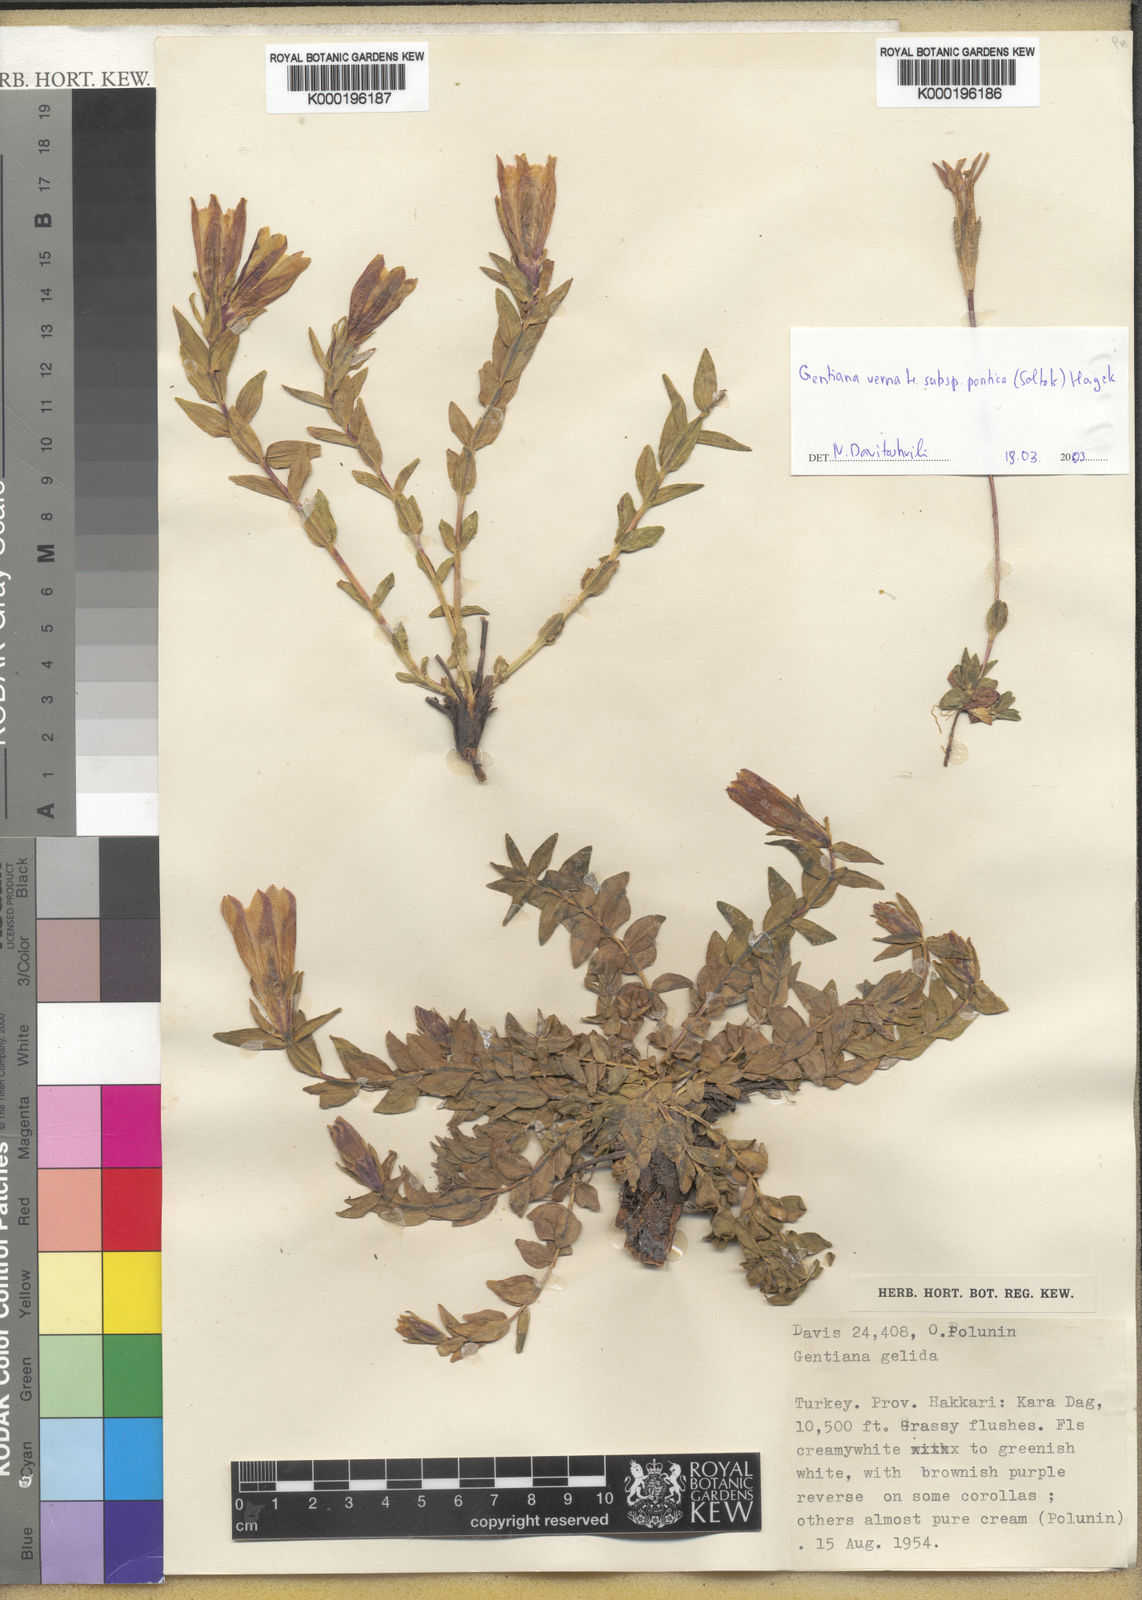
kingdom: Plantae
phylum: Tracheophyta
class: Magnoliopsida
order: Gentianales
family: Gentianaceae
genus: Gentiana
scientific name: Gentiana gelida
